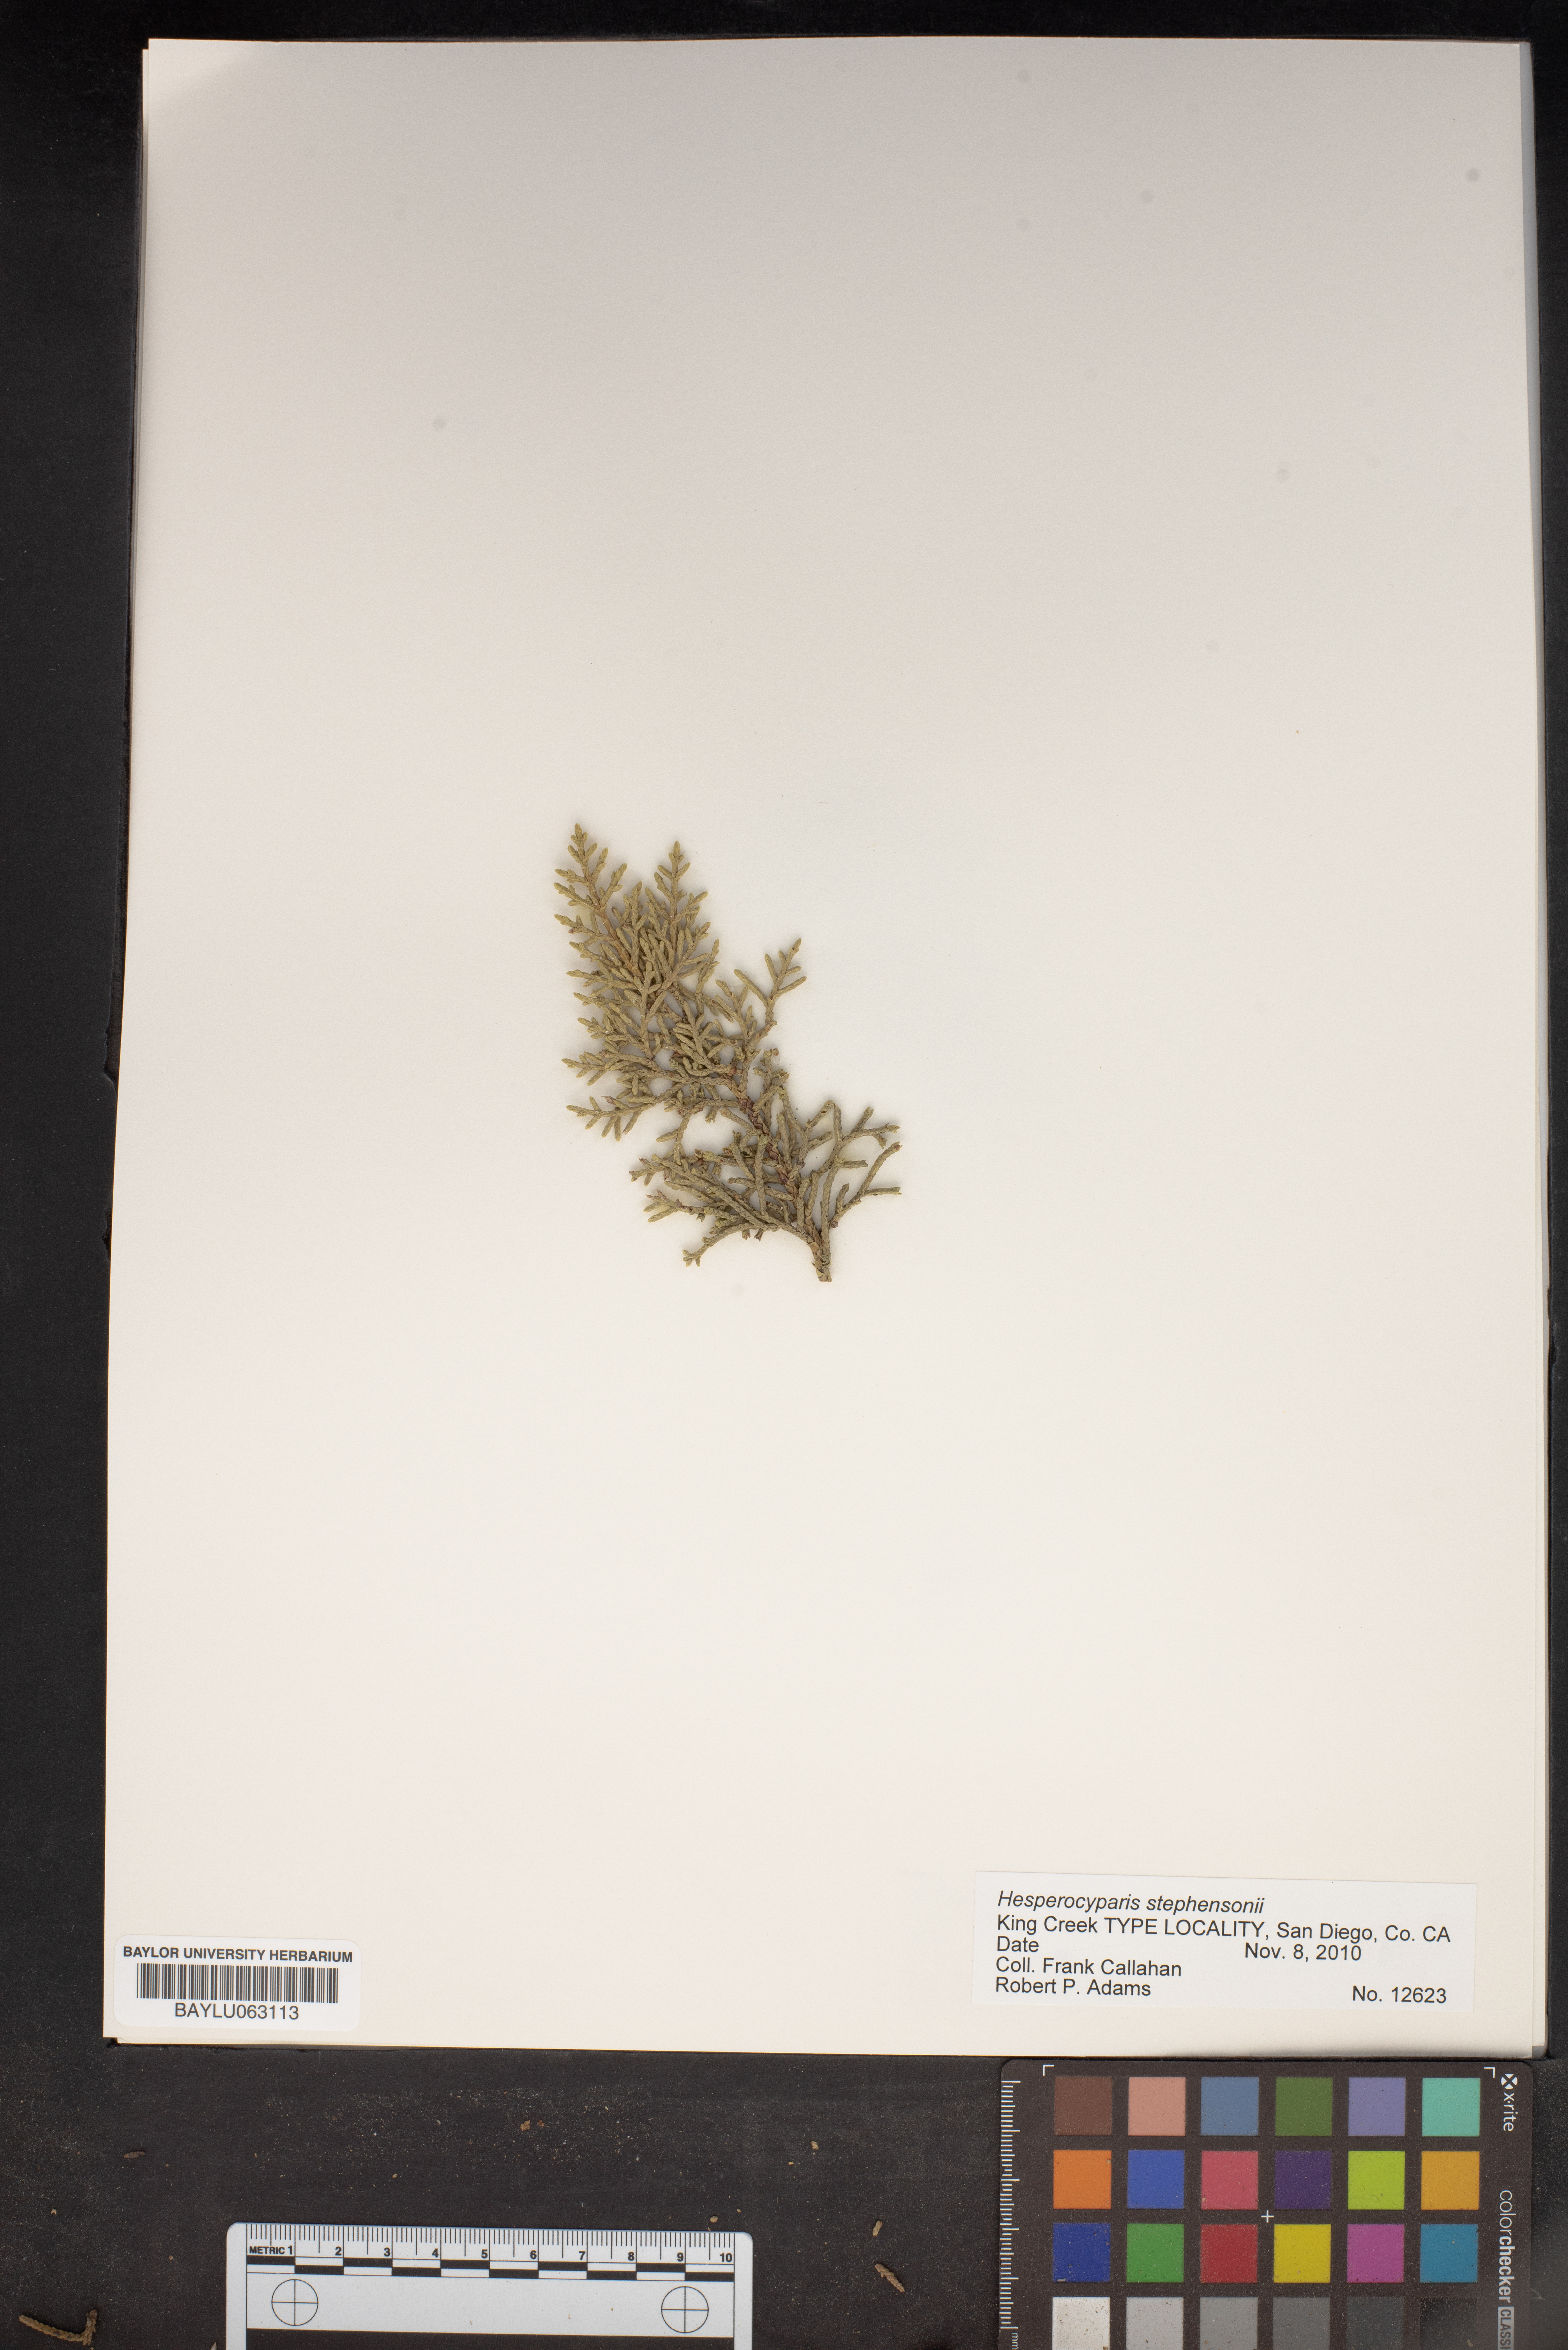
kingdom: Plantae
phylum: Tracheophyta
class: Pinopsida
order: Pinales
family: Cupressaceae
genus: Cupressus
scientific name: Cupressus arizonica
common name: Arizona cypress
